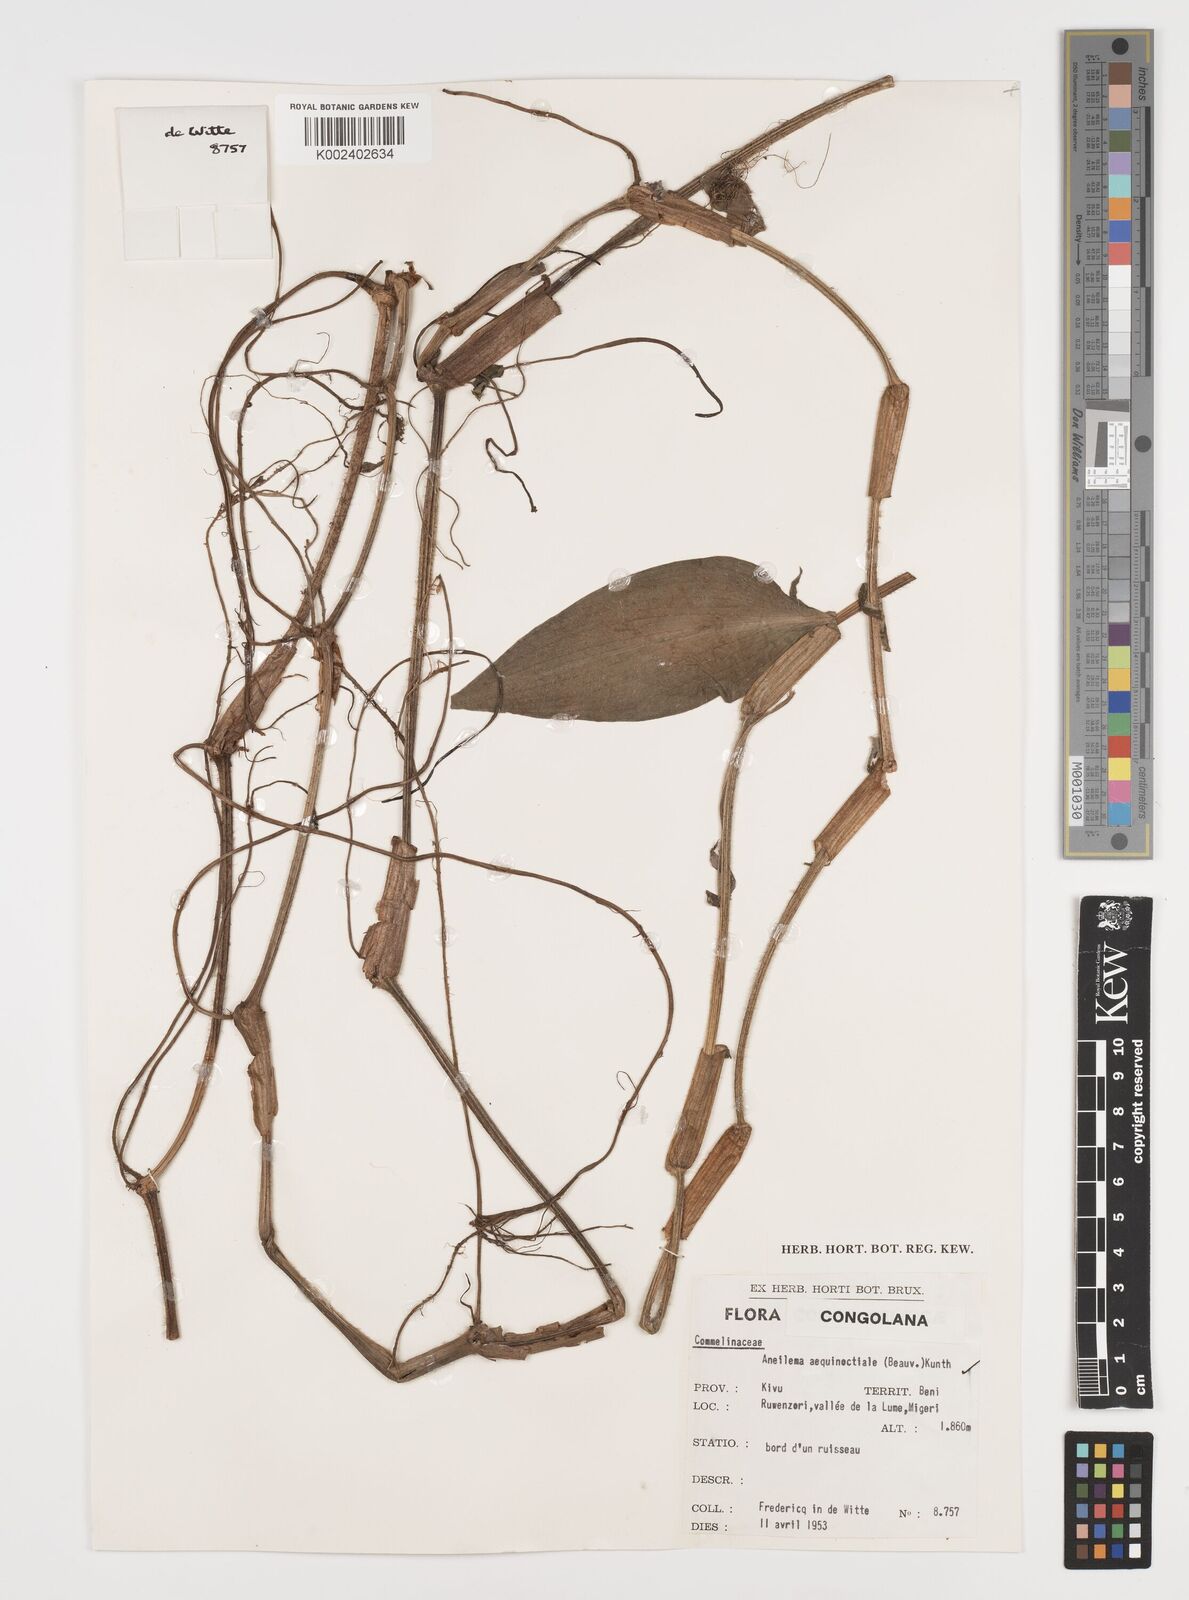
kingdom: Plantae
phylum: Tracheophyta
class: Liliopsida
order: Commelinales
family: Commelinaceae
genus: Aneilema
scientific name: Aneilema aequinoctiale
